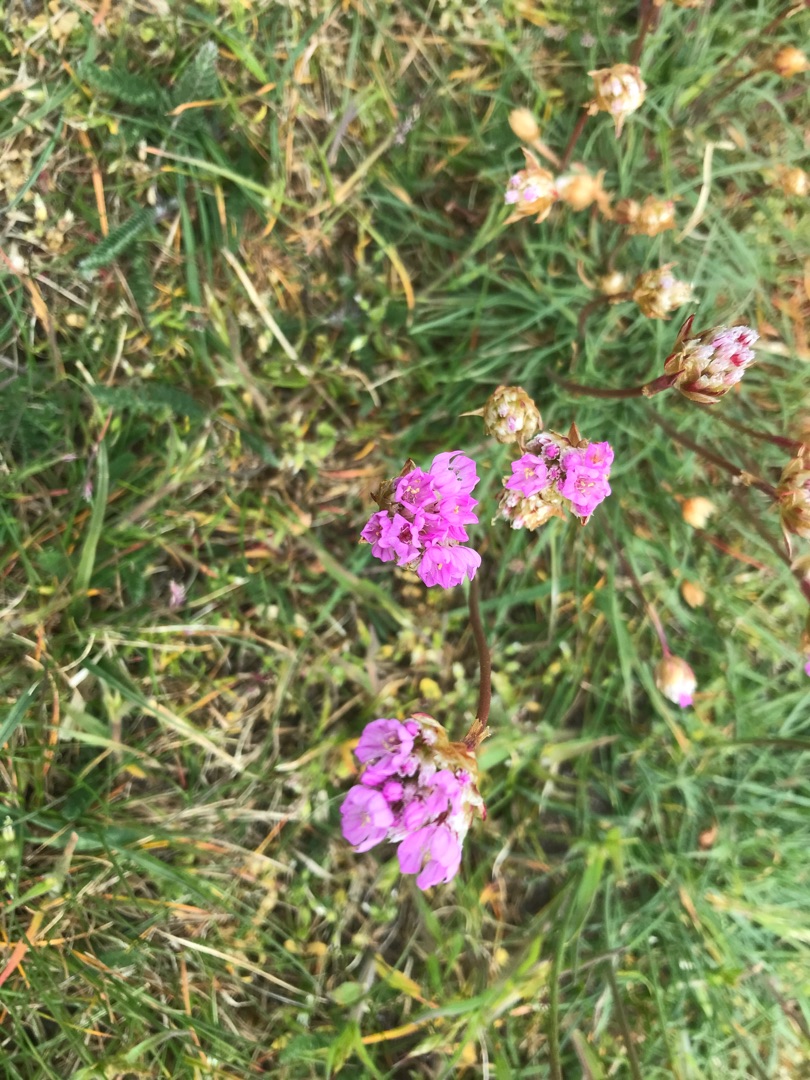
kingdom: Plantae
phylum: Tracheophyta
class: Magnoliopsida
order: Caryophyllales
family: Plumbaginaceae
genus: Armeria
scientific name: Armeria maritima
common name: Engelskgræs
